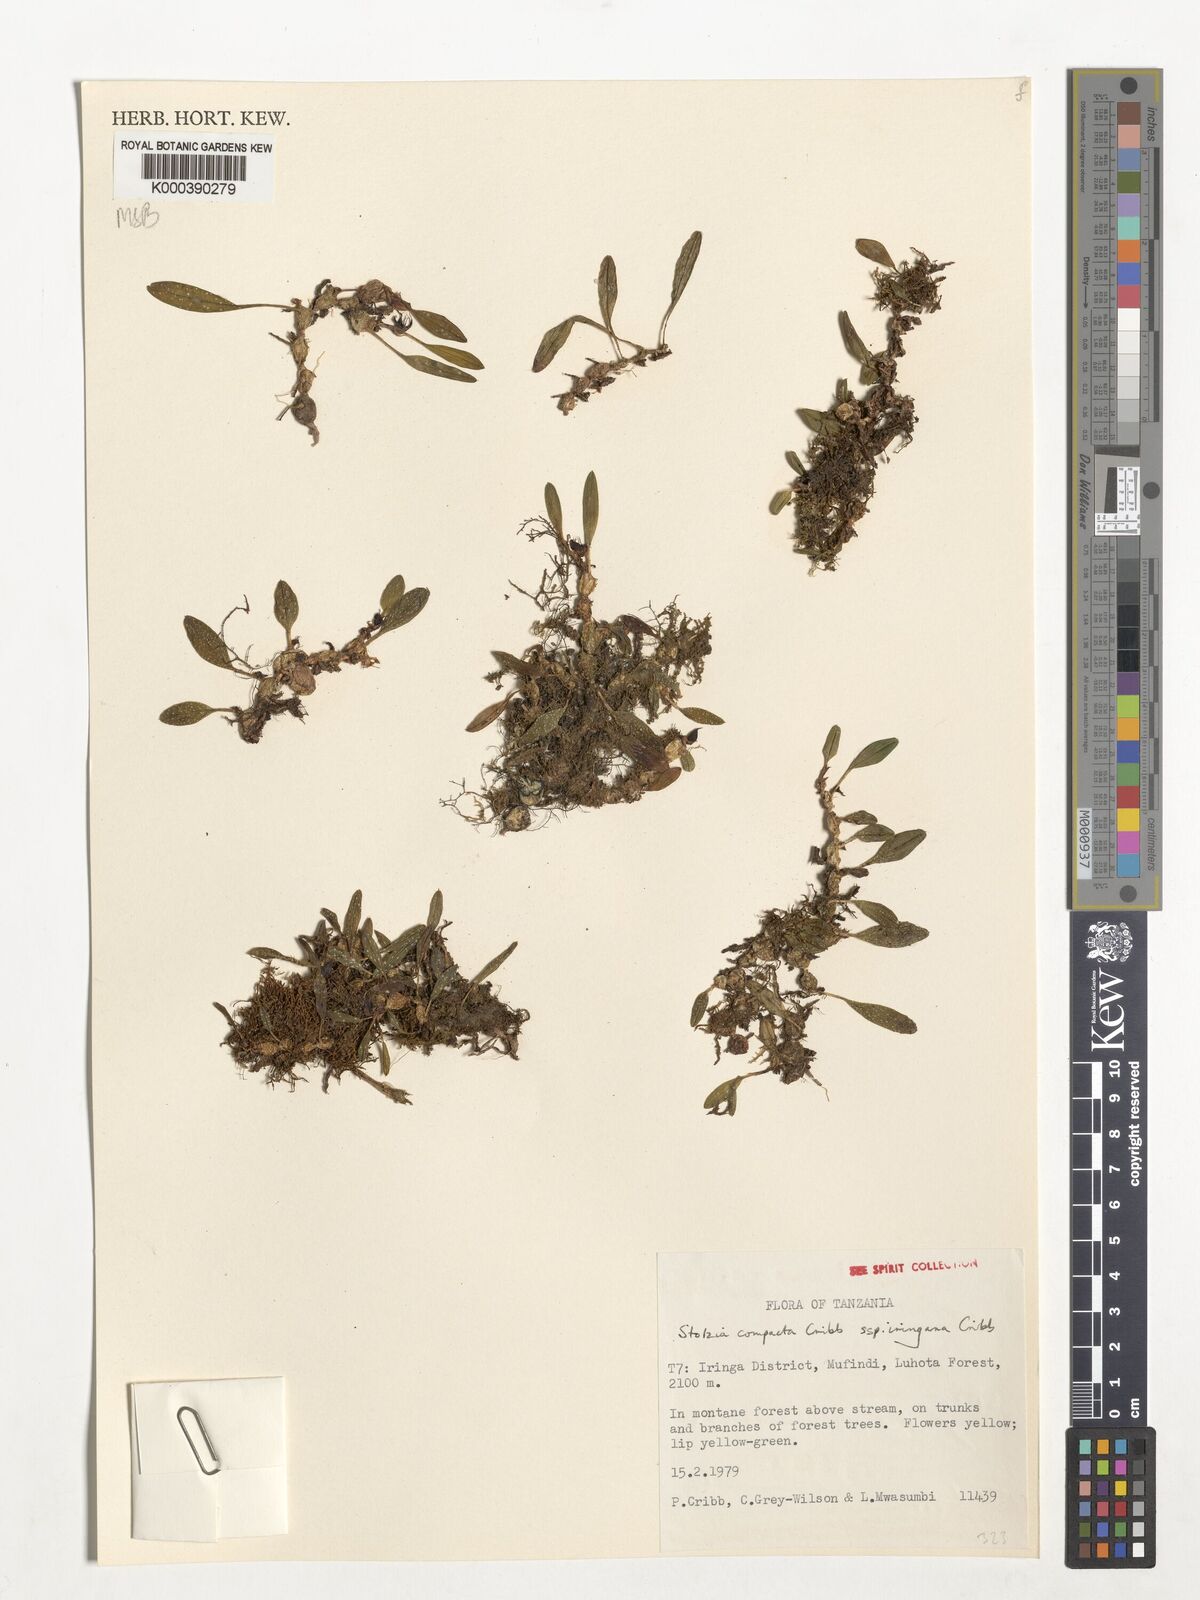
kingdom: Plantae
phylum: Tracheophyta
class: Liliopsida
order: Asparagales
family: Orchidaceae
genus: Porpax
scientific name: Porpax compacta
